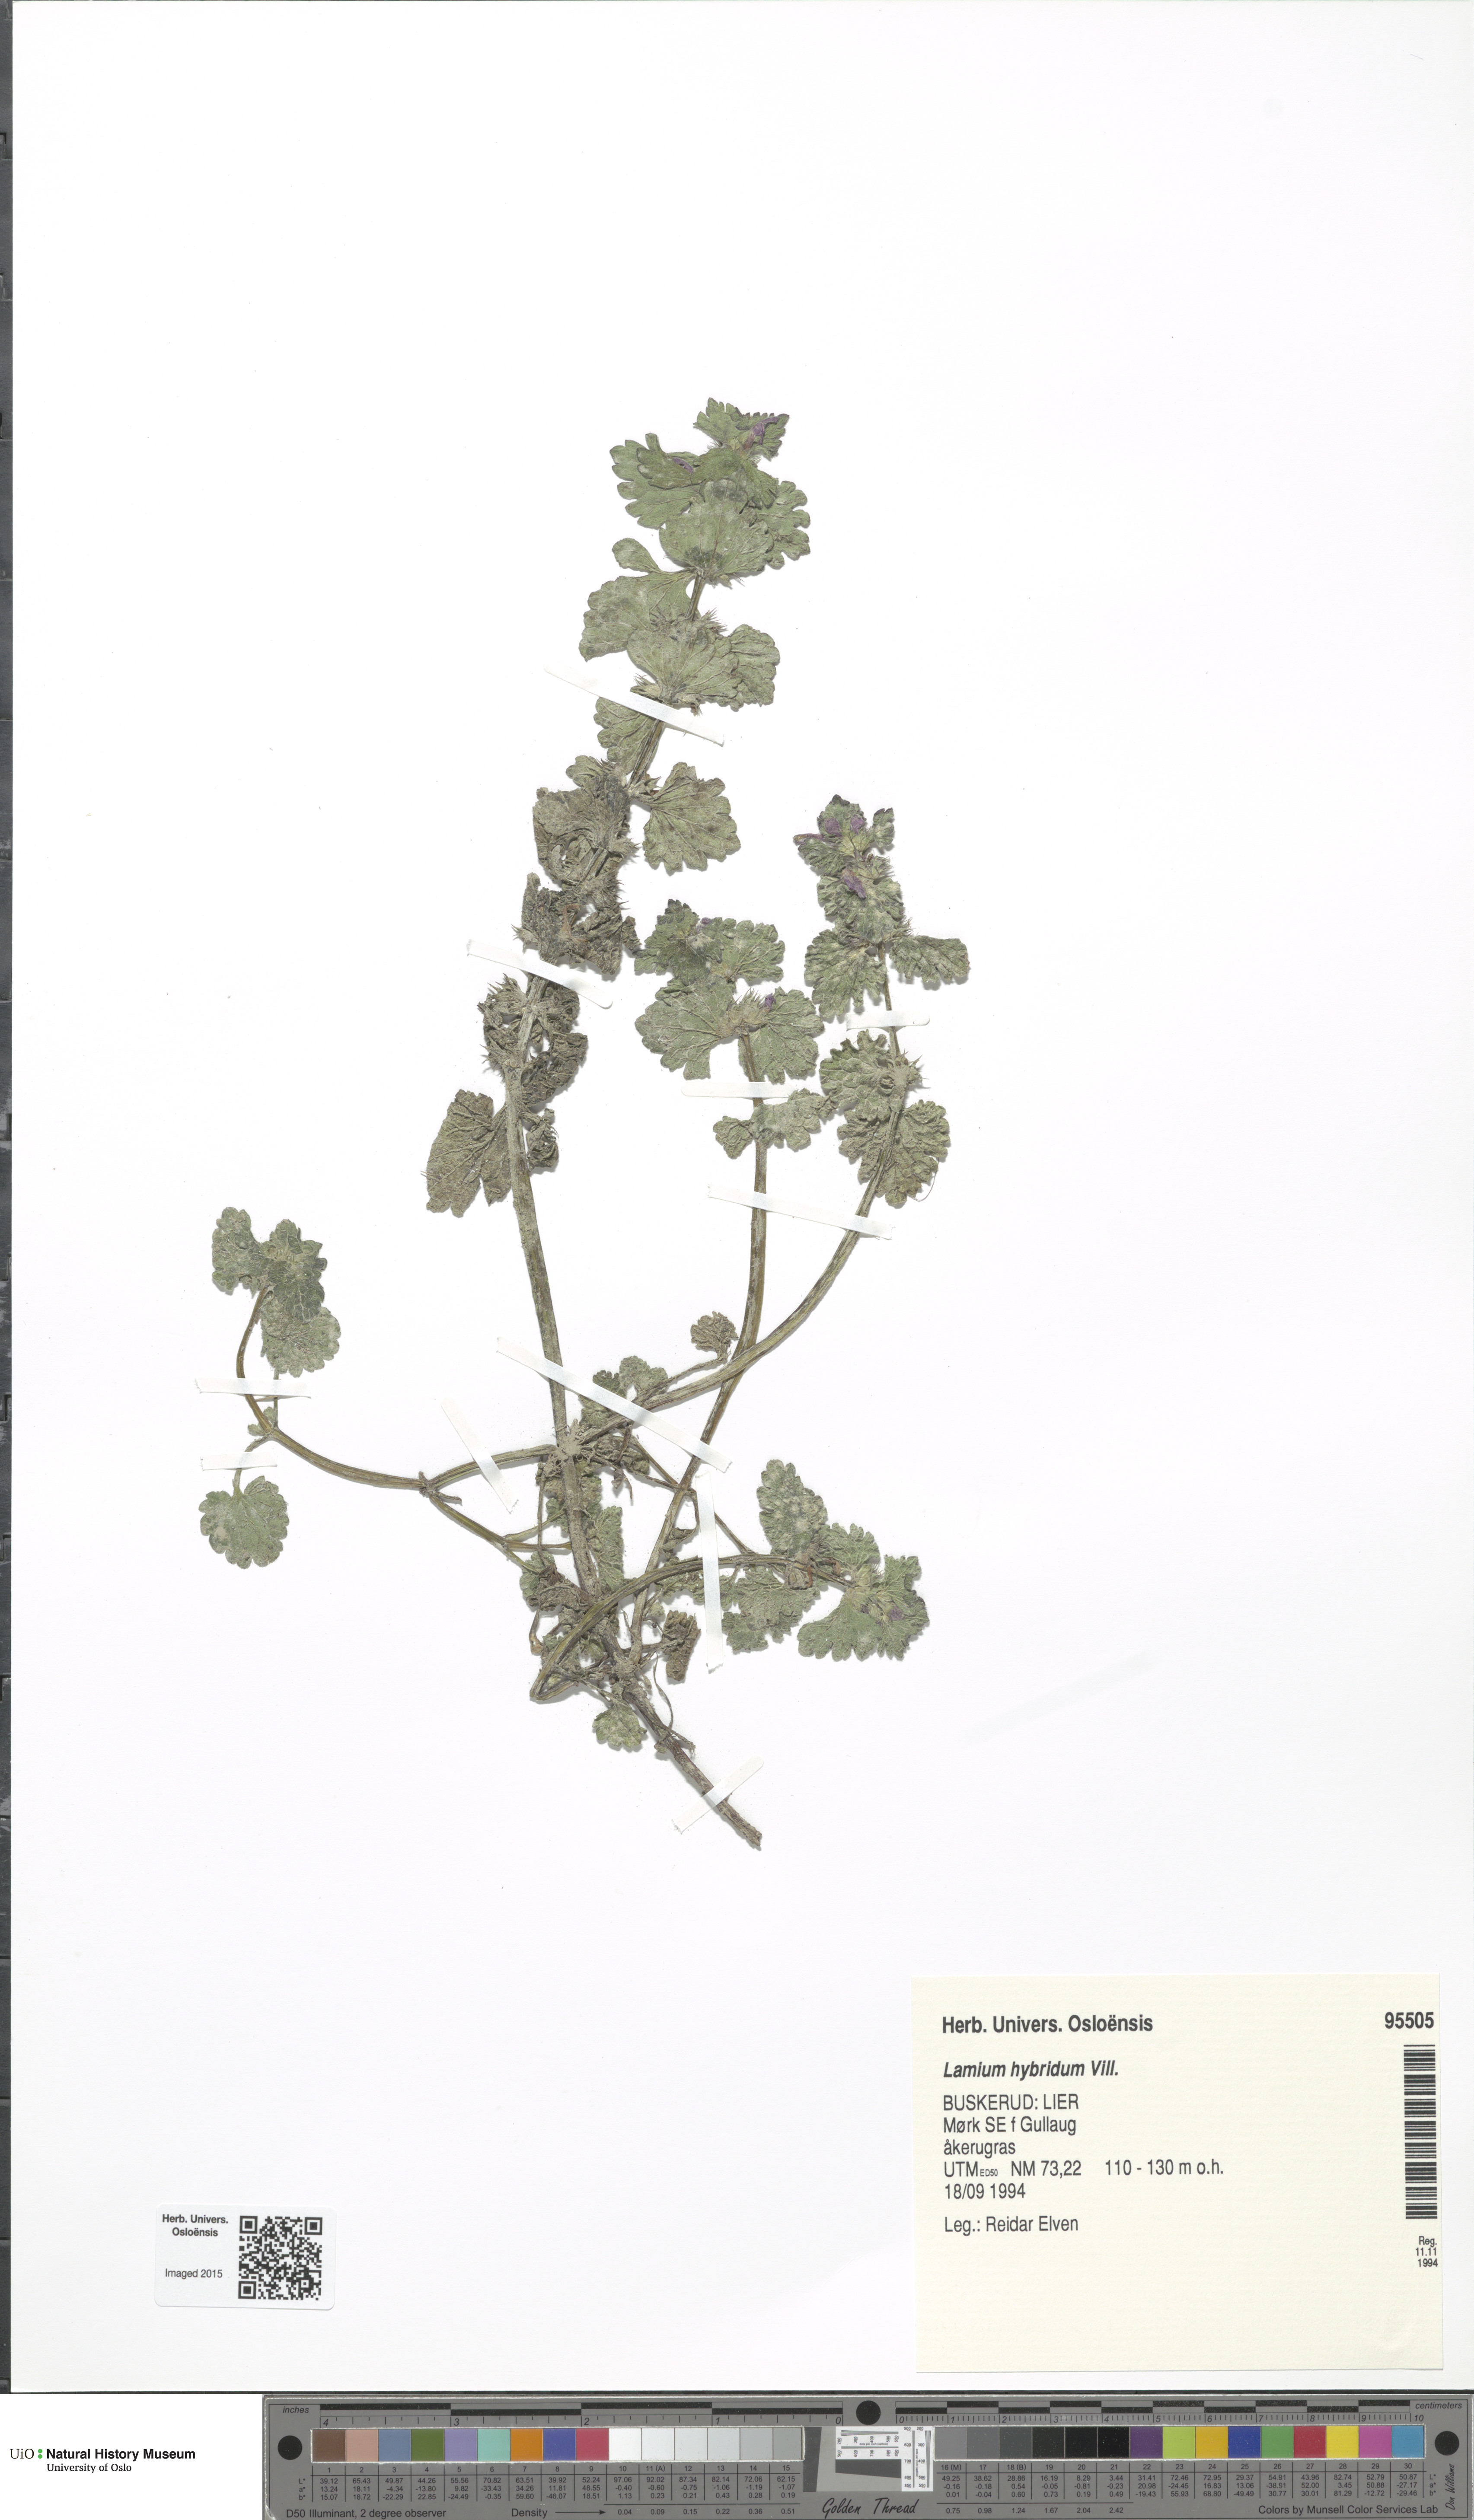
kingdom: Plantae
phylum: Tracheophyta
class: Magnoliopsida
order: Lamiales
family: Lamiaceae
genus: Lamium
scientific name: Lamium hybridum
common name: Cut-leaved dead-nettle
